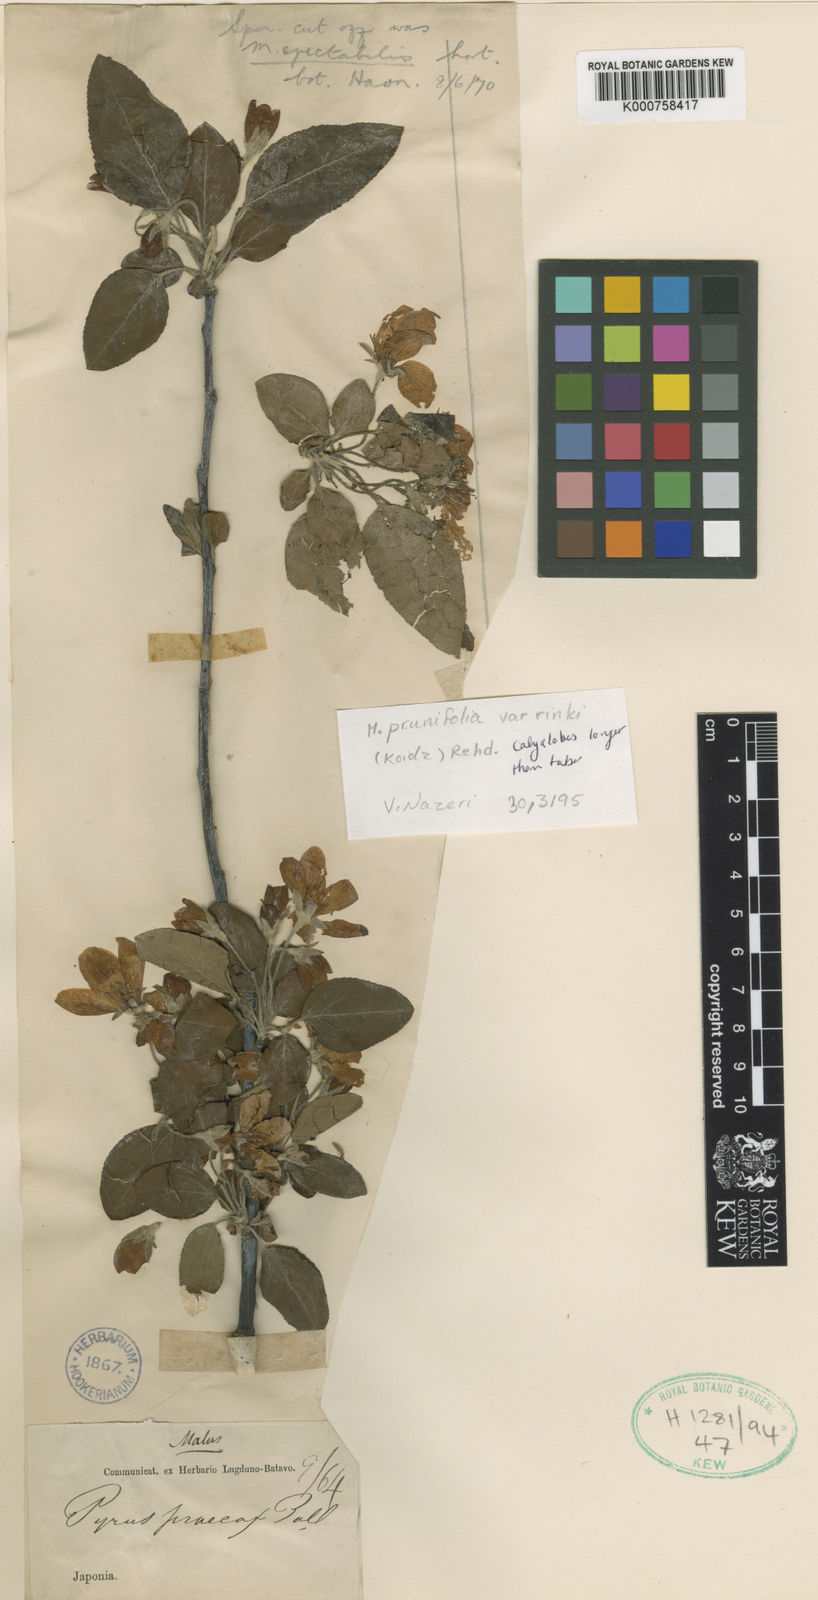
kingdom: Plantae
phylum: Tracheophyta
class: Magnoliopsida
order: Rosales
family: Rosaceae
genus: Malus
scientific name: Malus asiatica
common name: Chinese pearleaf crabapple
